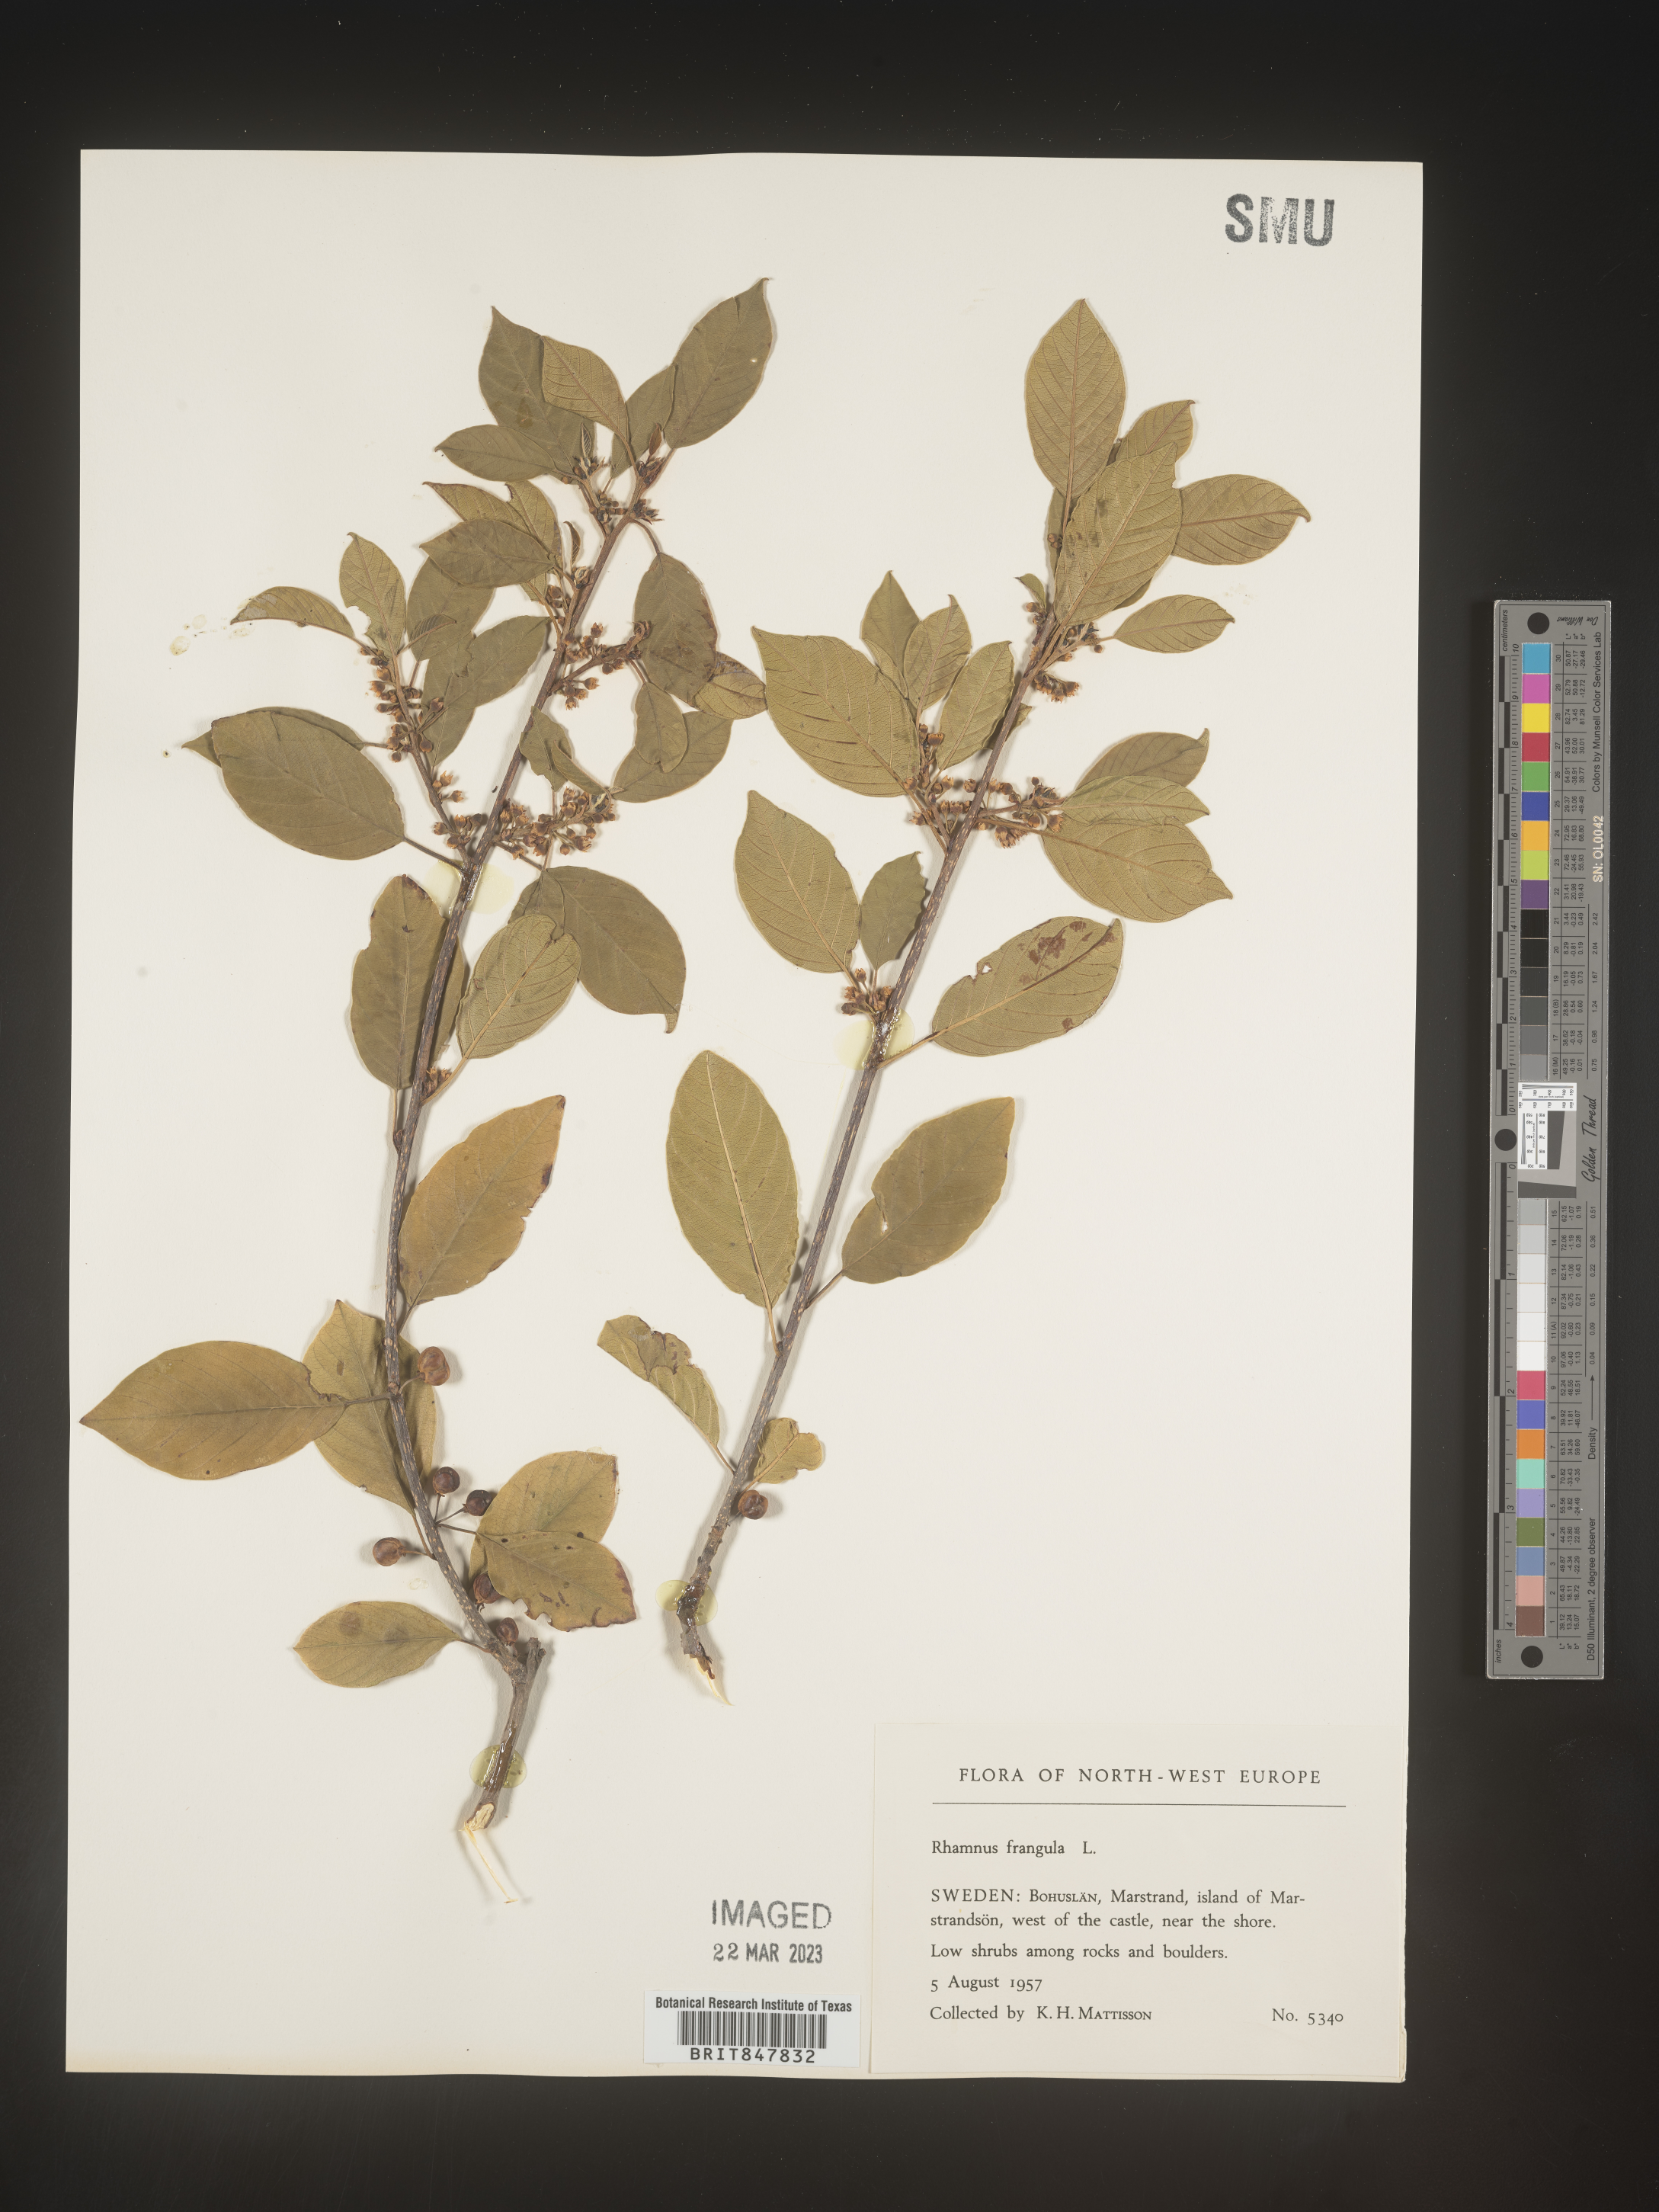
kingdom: Plantae
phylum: Tracheophyta
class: Magnoliopsida
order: Rosales
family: Rhamnaceae
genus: Rhamnus
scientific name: Rhamnus
